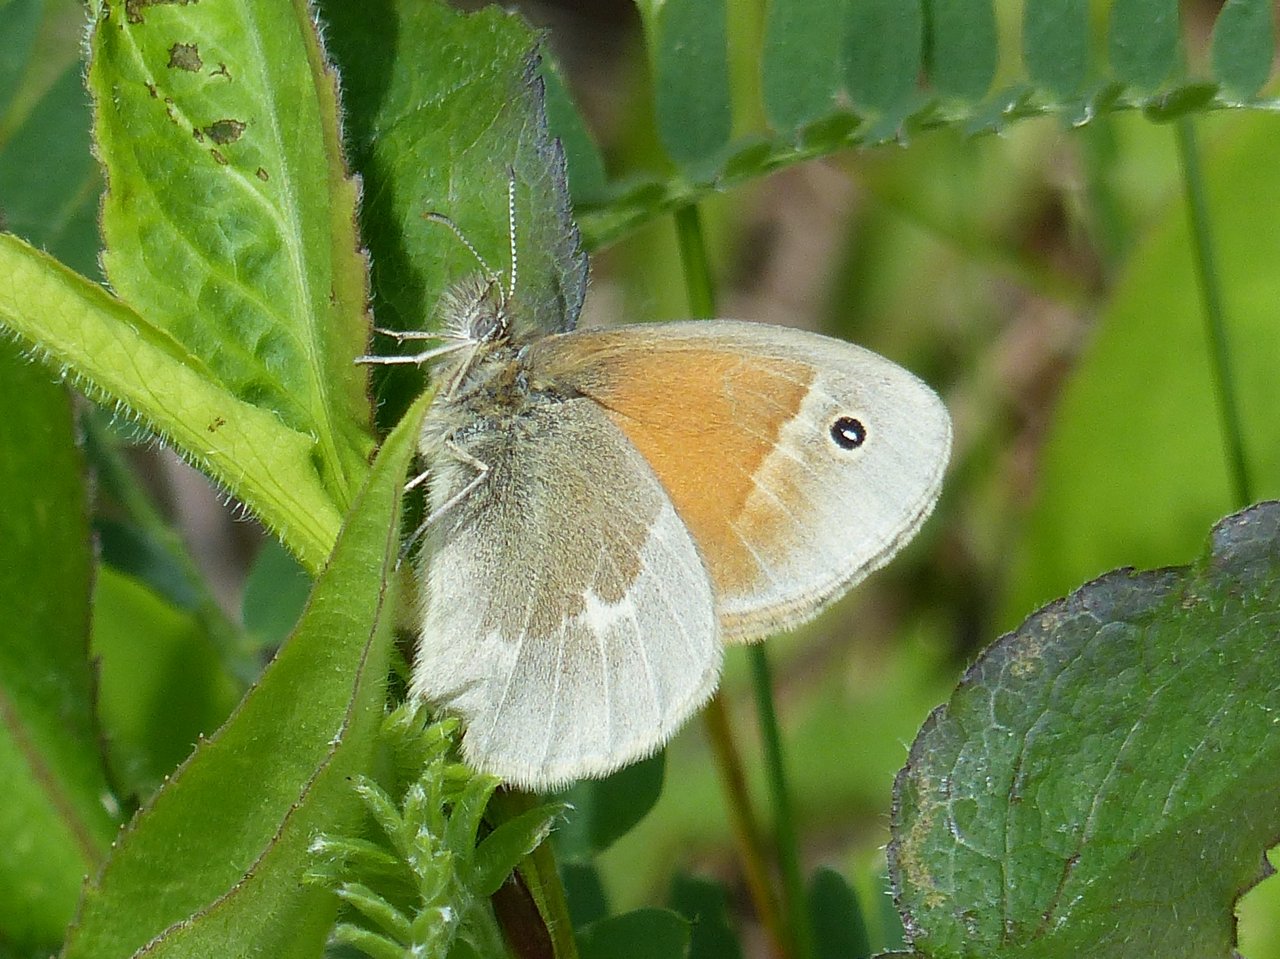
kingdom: Animalia
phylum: Arthropoda
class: Insecta
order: Lepidoptera
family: Nymphalidae
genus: Coenonympha
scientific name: Coenonympha tullia
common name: Large Heath
